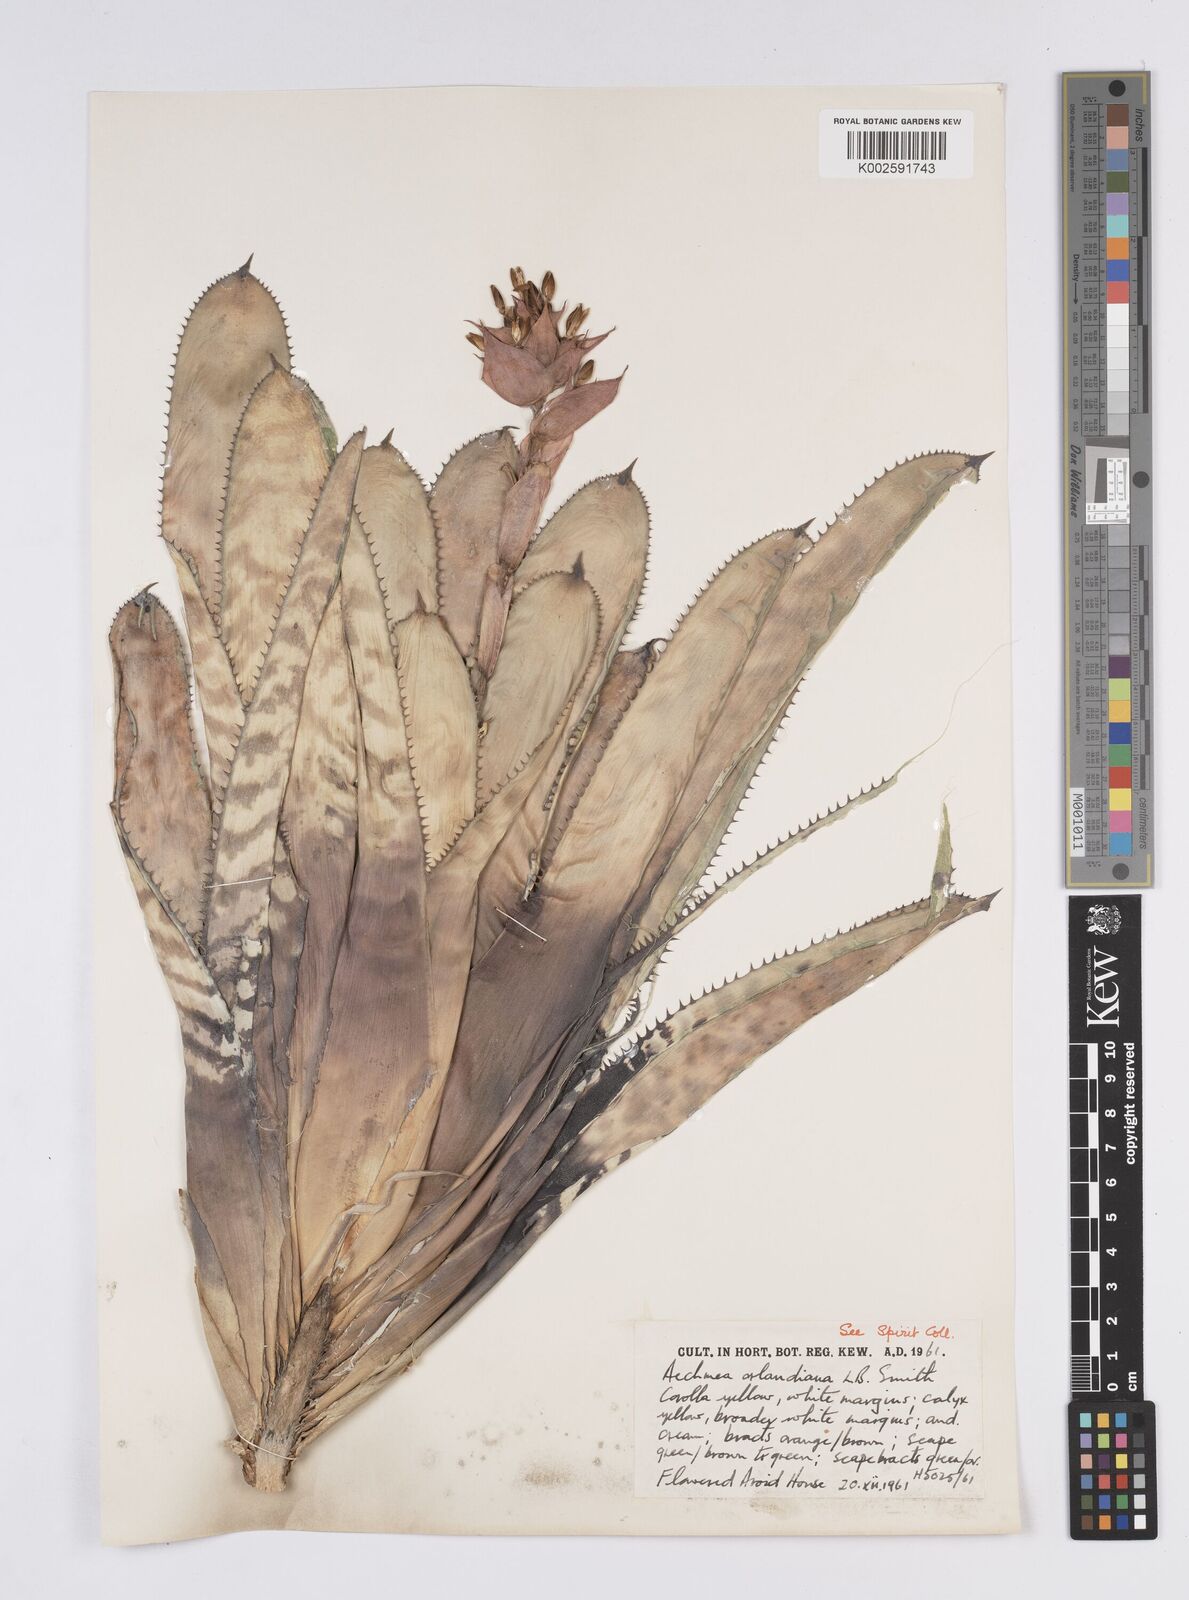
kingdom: Plantae
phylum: Tracheophyta
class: Liliopsida
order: Poales
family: Bromeliaceae
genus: Aechmea
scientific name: Aechmea orlandiana
